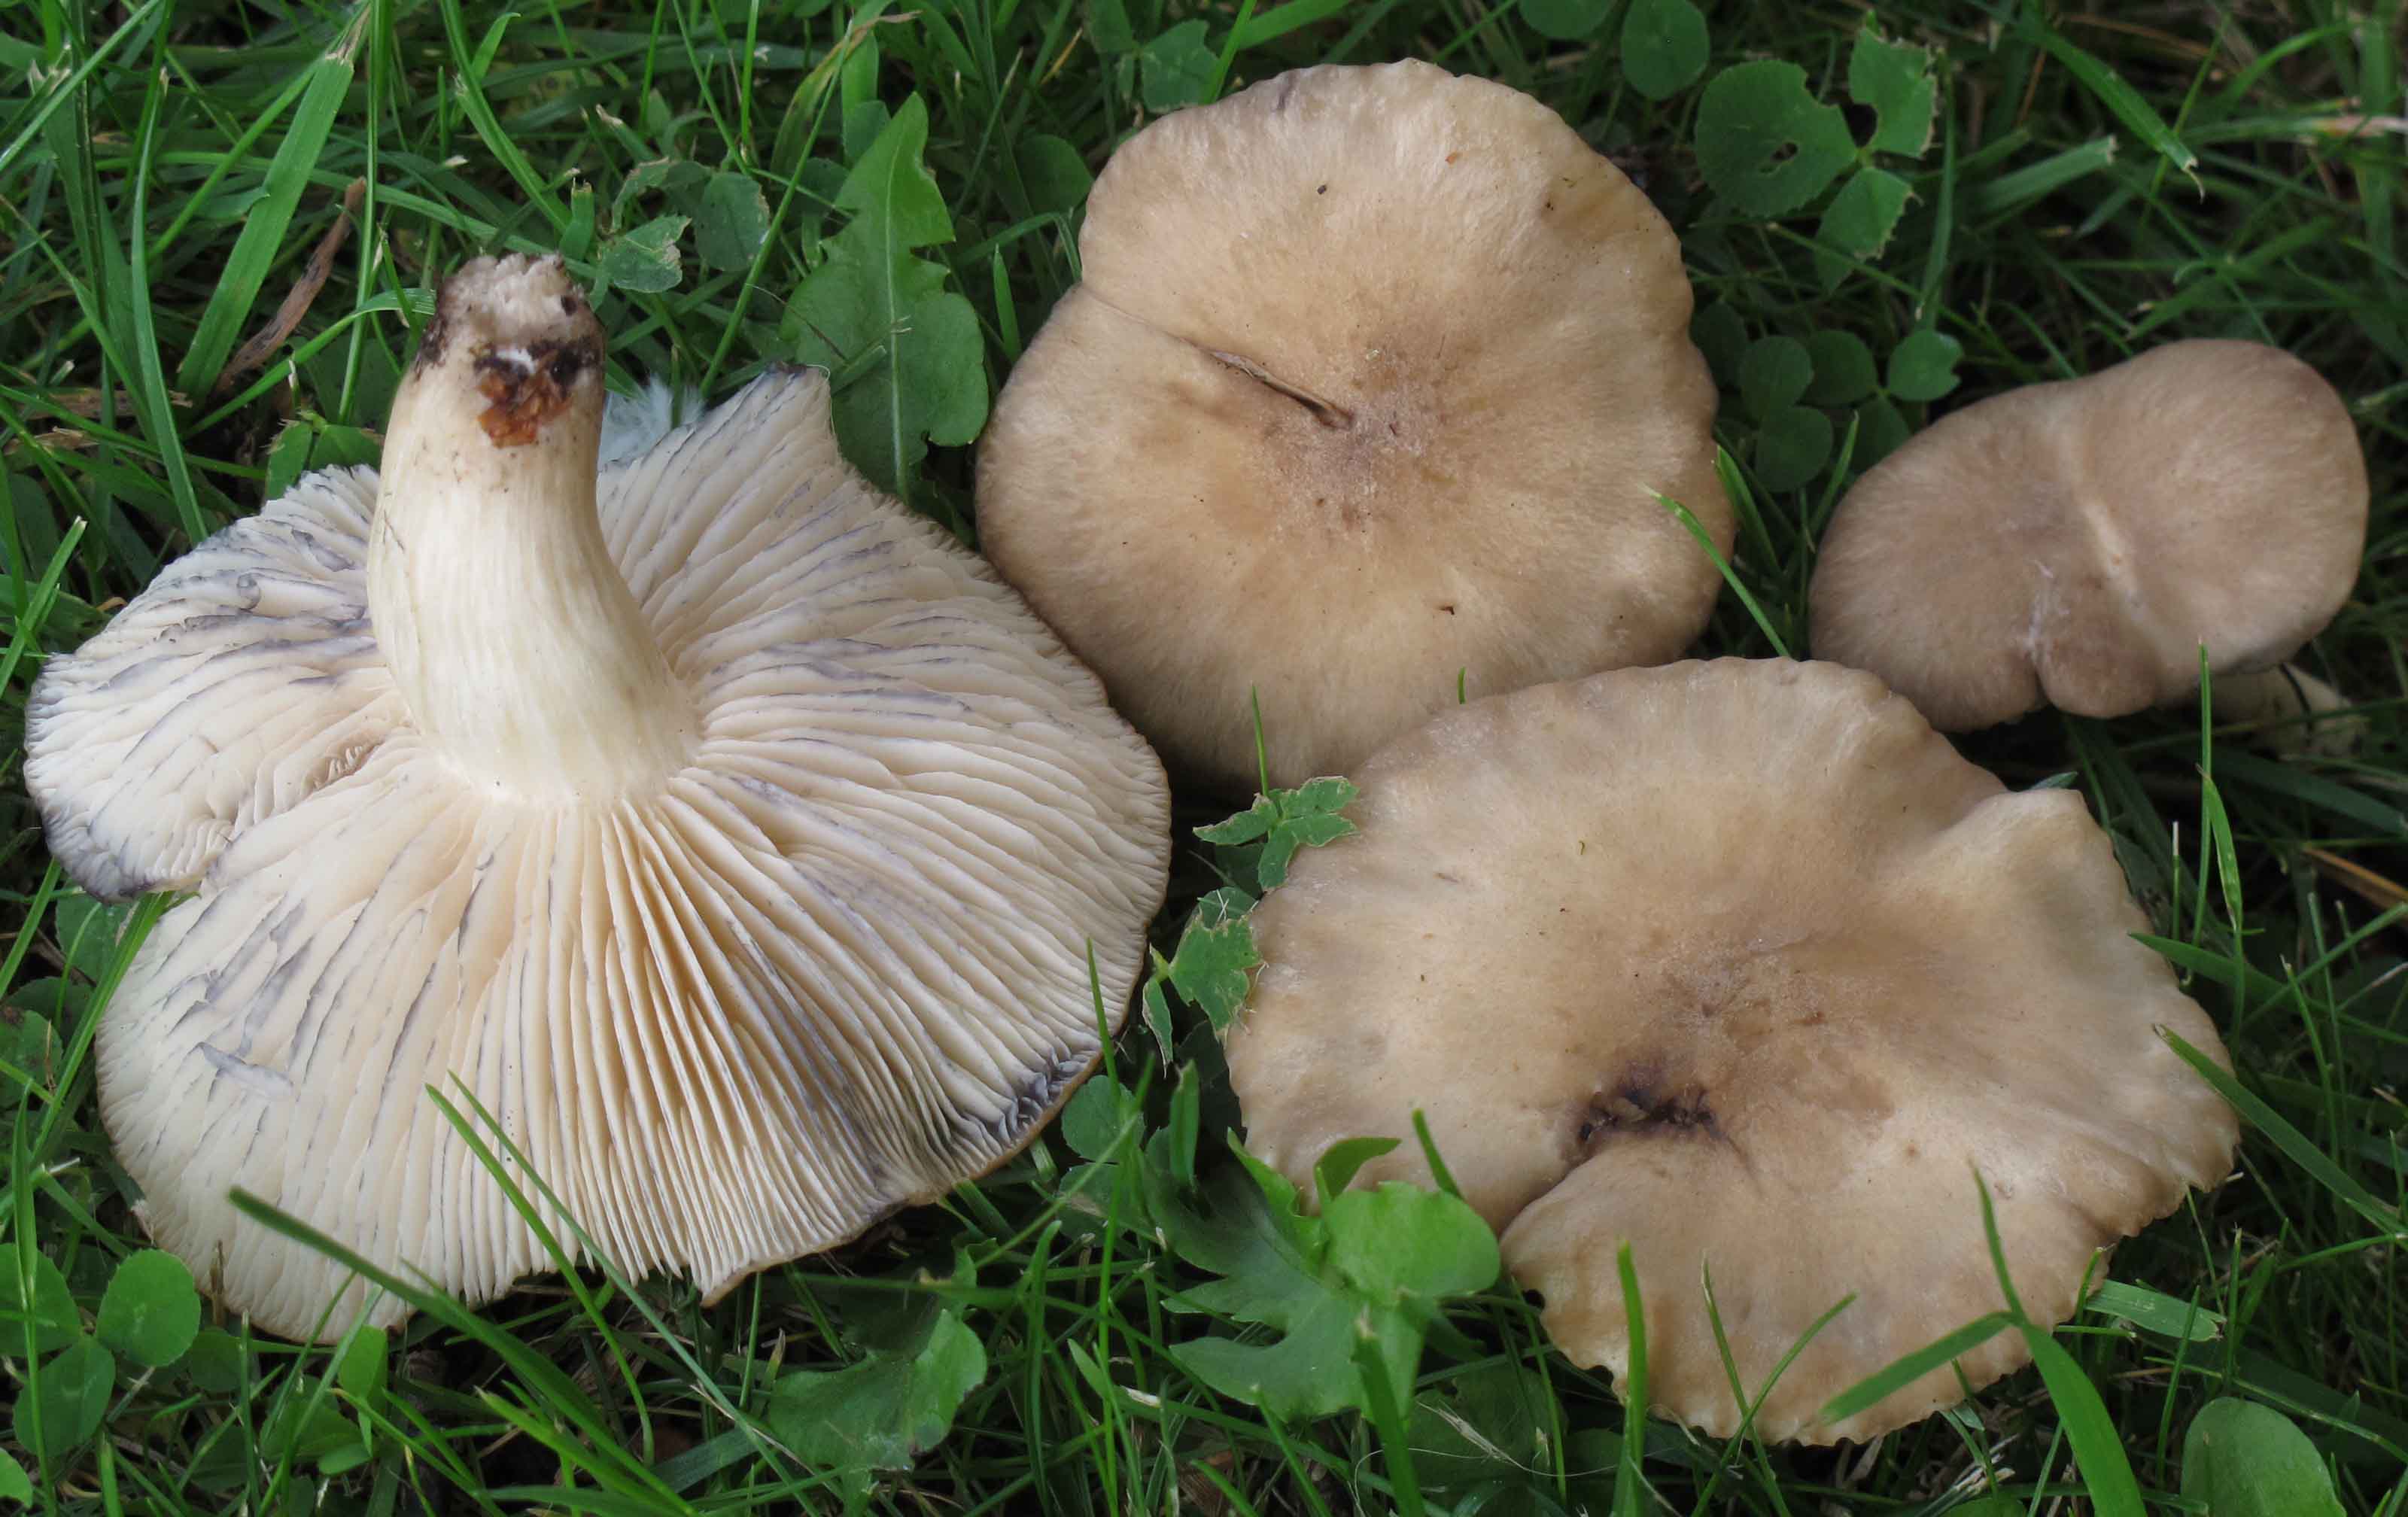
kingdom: Fungi
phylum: Basidiomycota
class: Agaricomycetes
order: Agaricales
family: Lyophyllaceae
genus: Lyophyllum
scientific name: Lyophyllum paelochroum
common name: blånende gråblad
